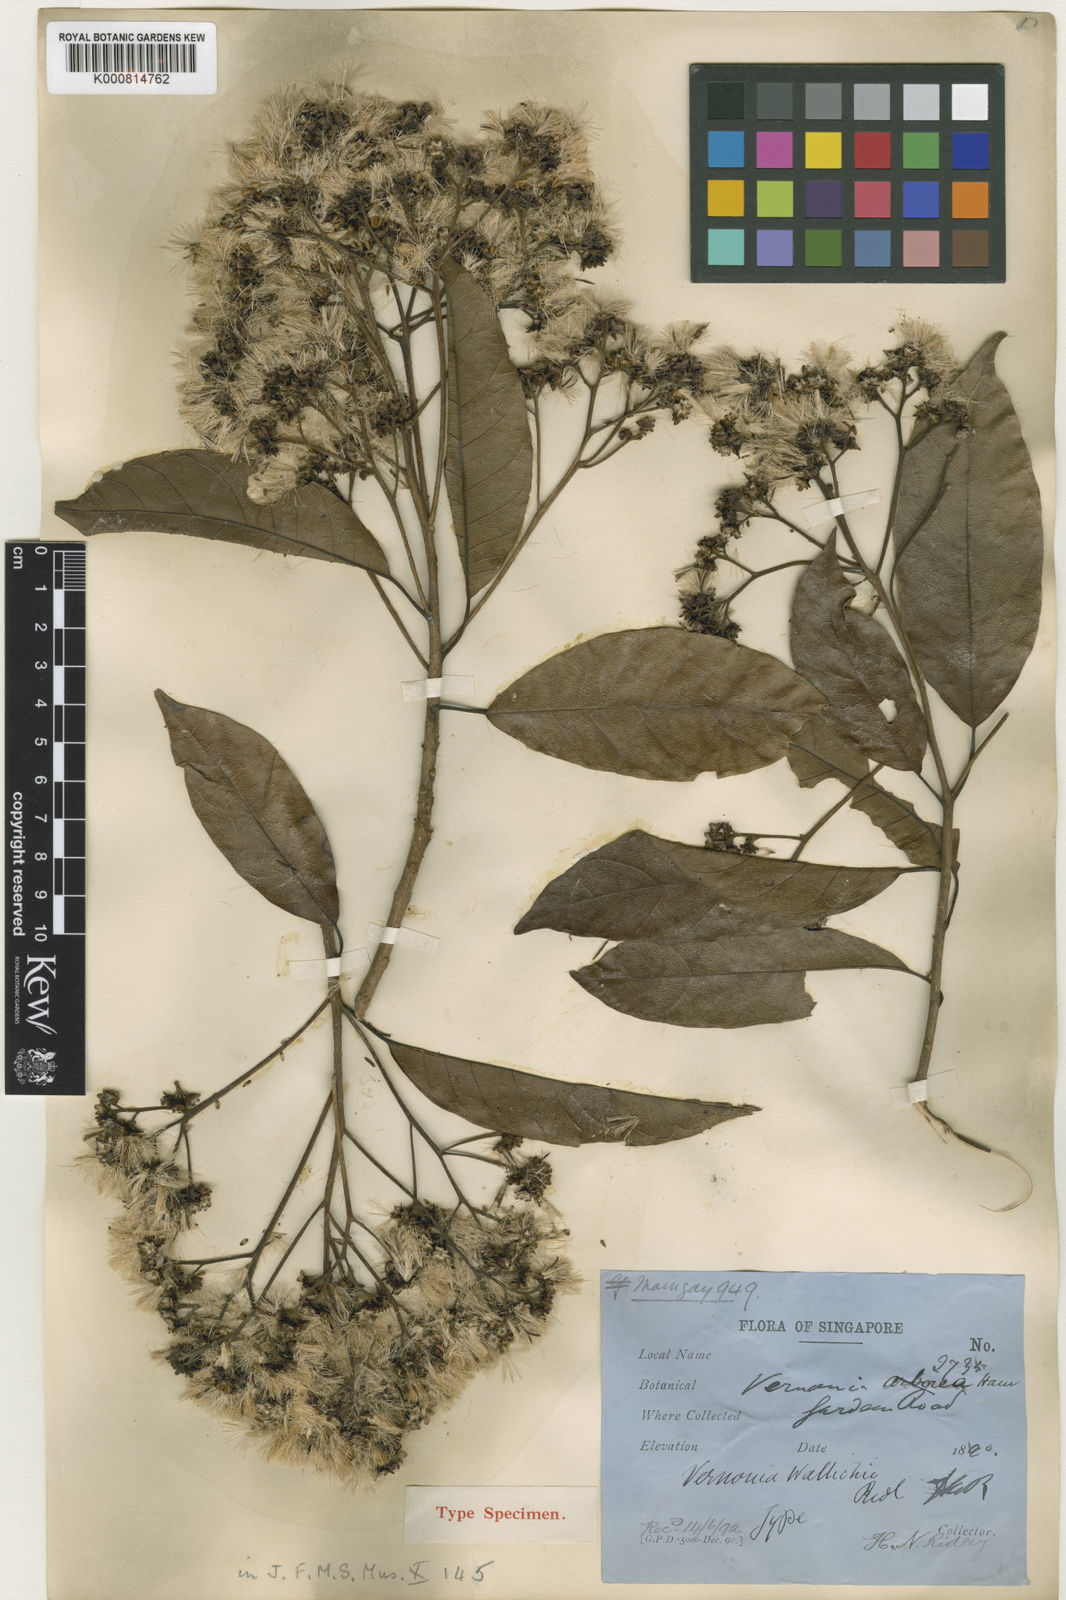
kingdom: Plantae
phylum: Tracheophyta
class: Magnoliopsida
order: Asterales
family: Asteraceae
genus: Strobocalyx
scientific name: Strobocalyx arborea
